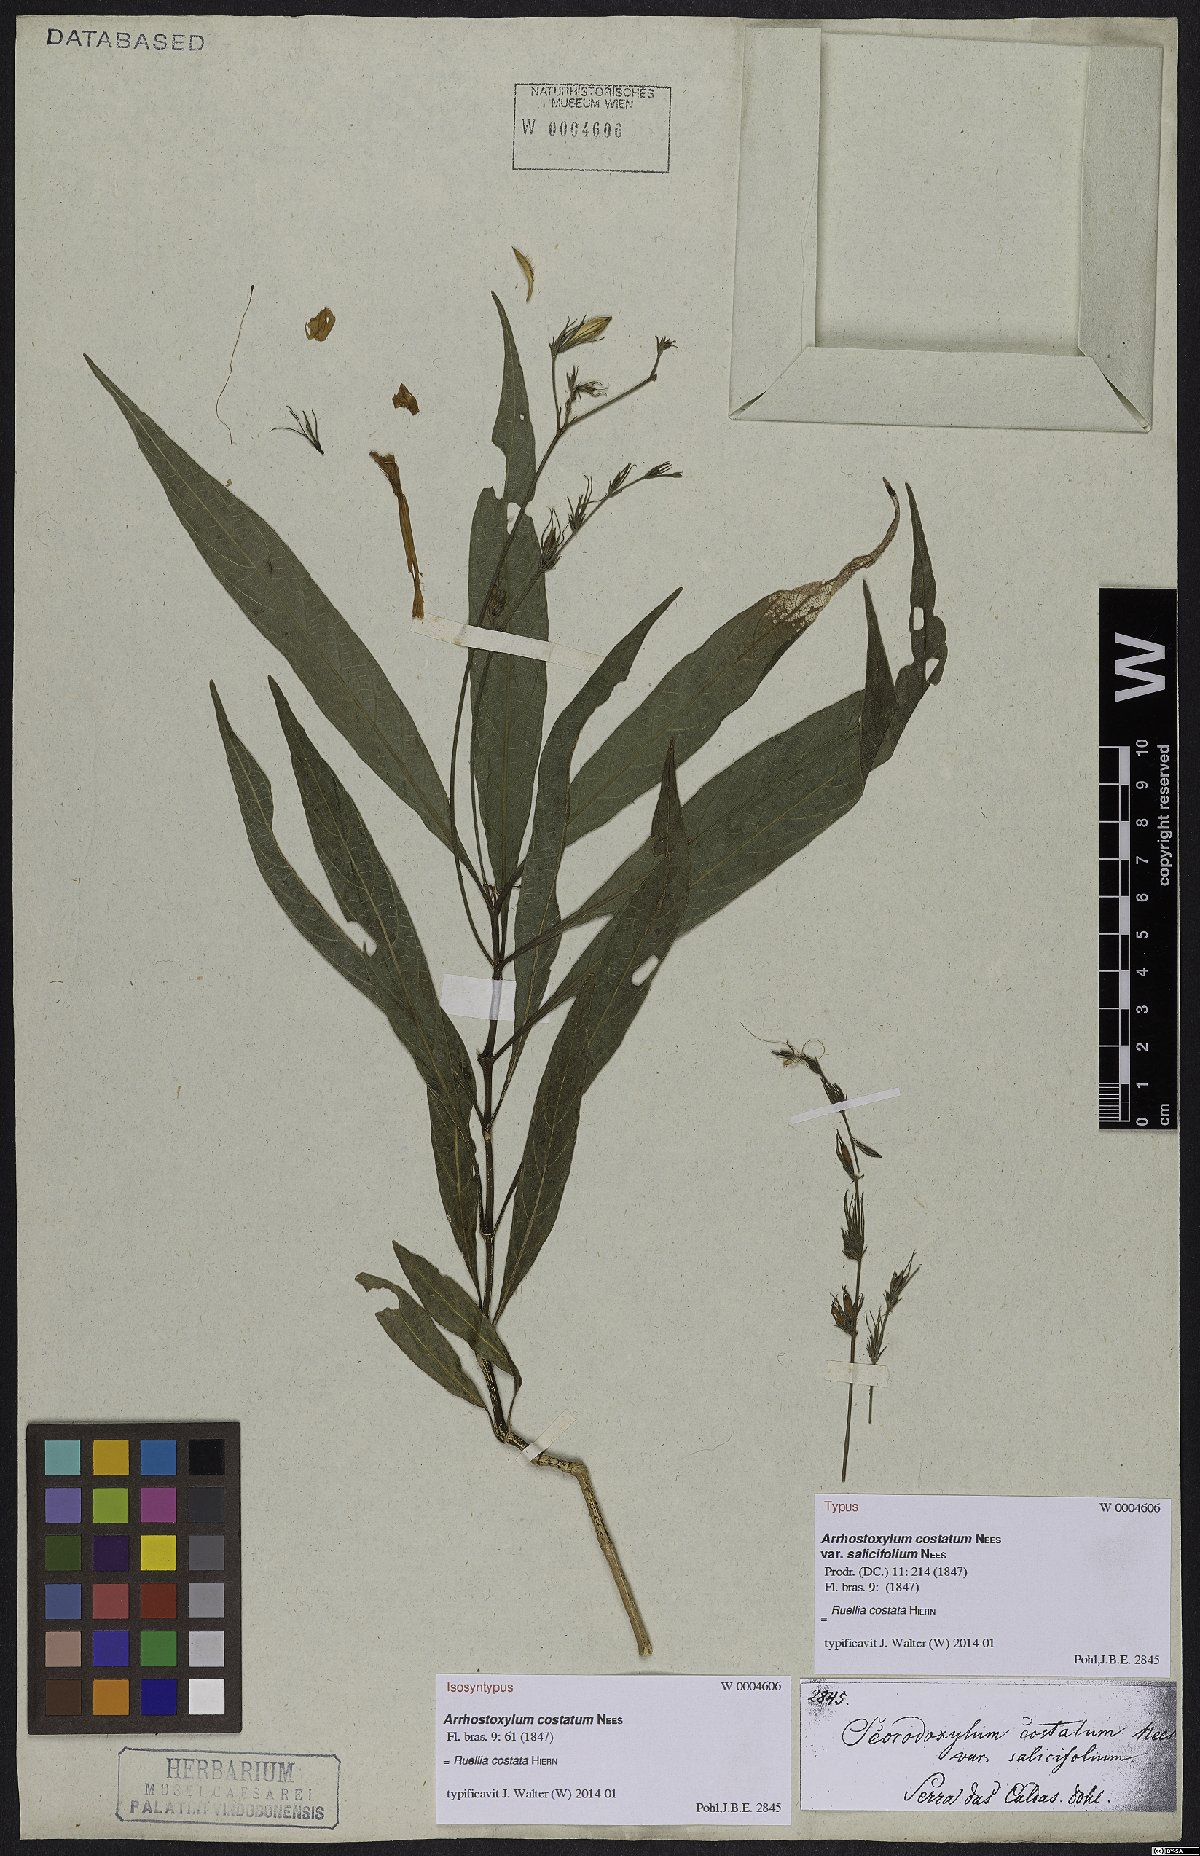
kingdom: Plantae
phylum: Tracheophyta
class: Magnoliopsida
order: Lamiales
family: Acanthaceae
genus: Ruellia
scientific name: Ruellia costata
